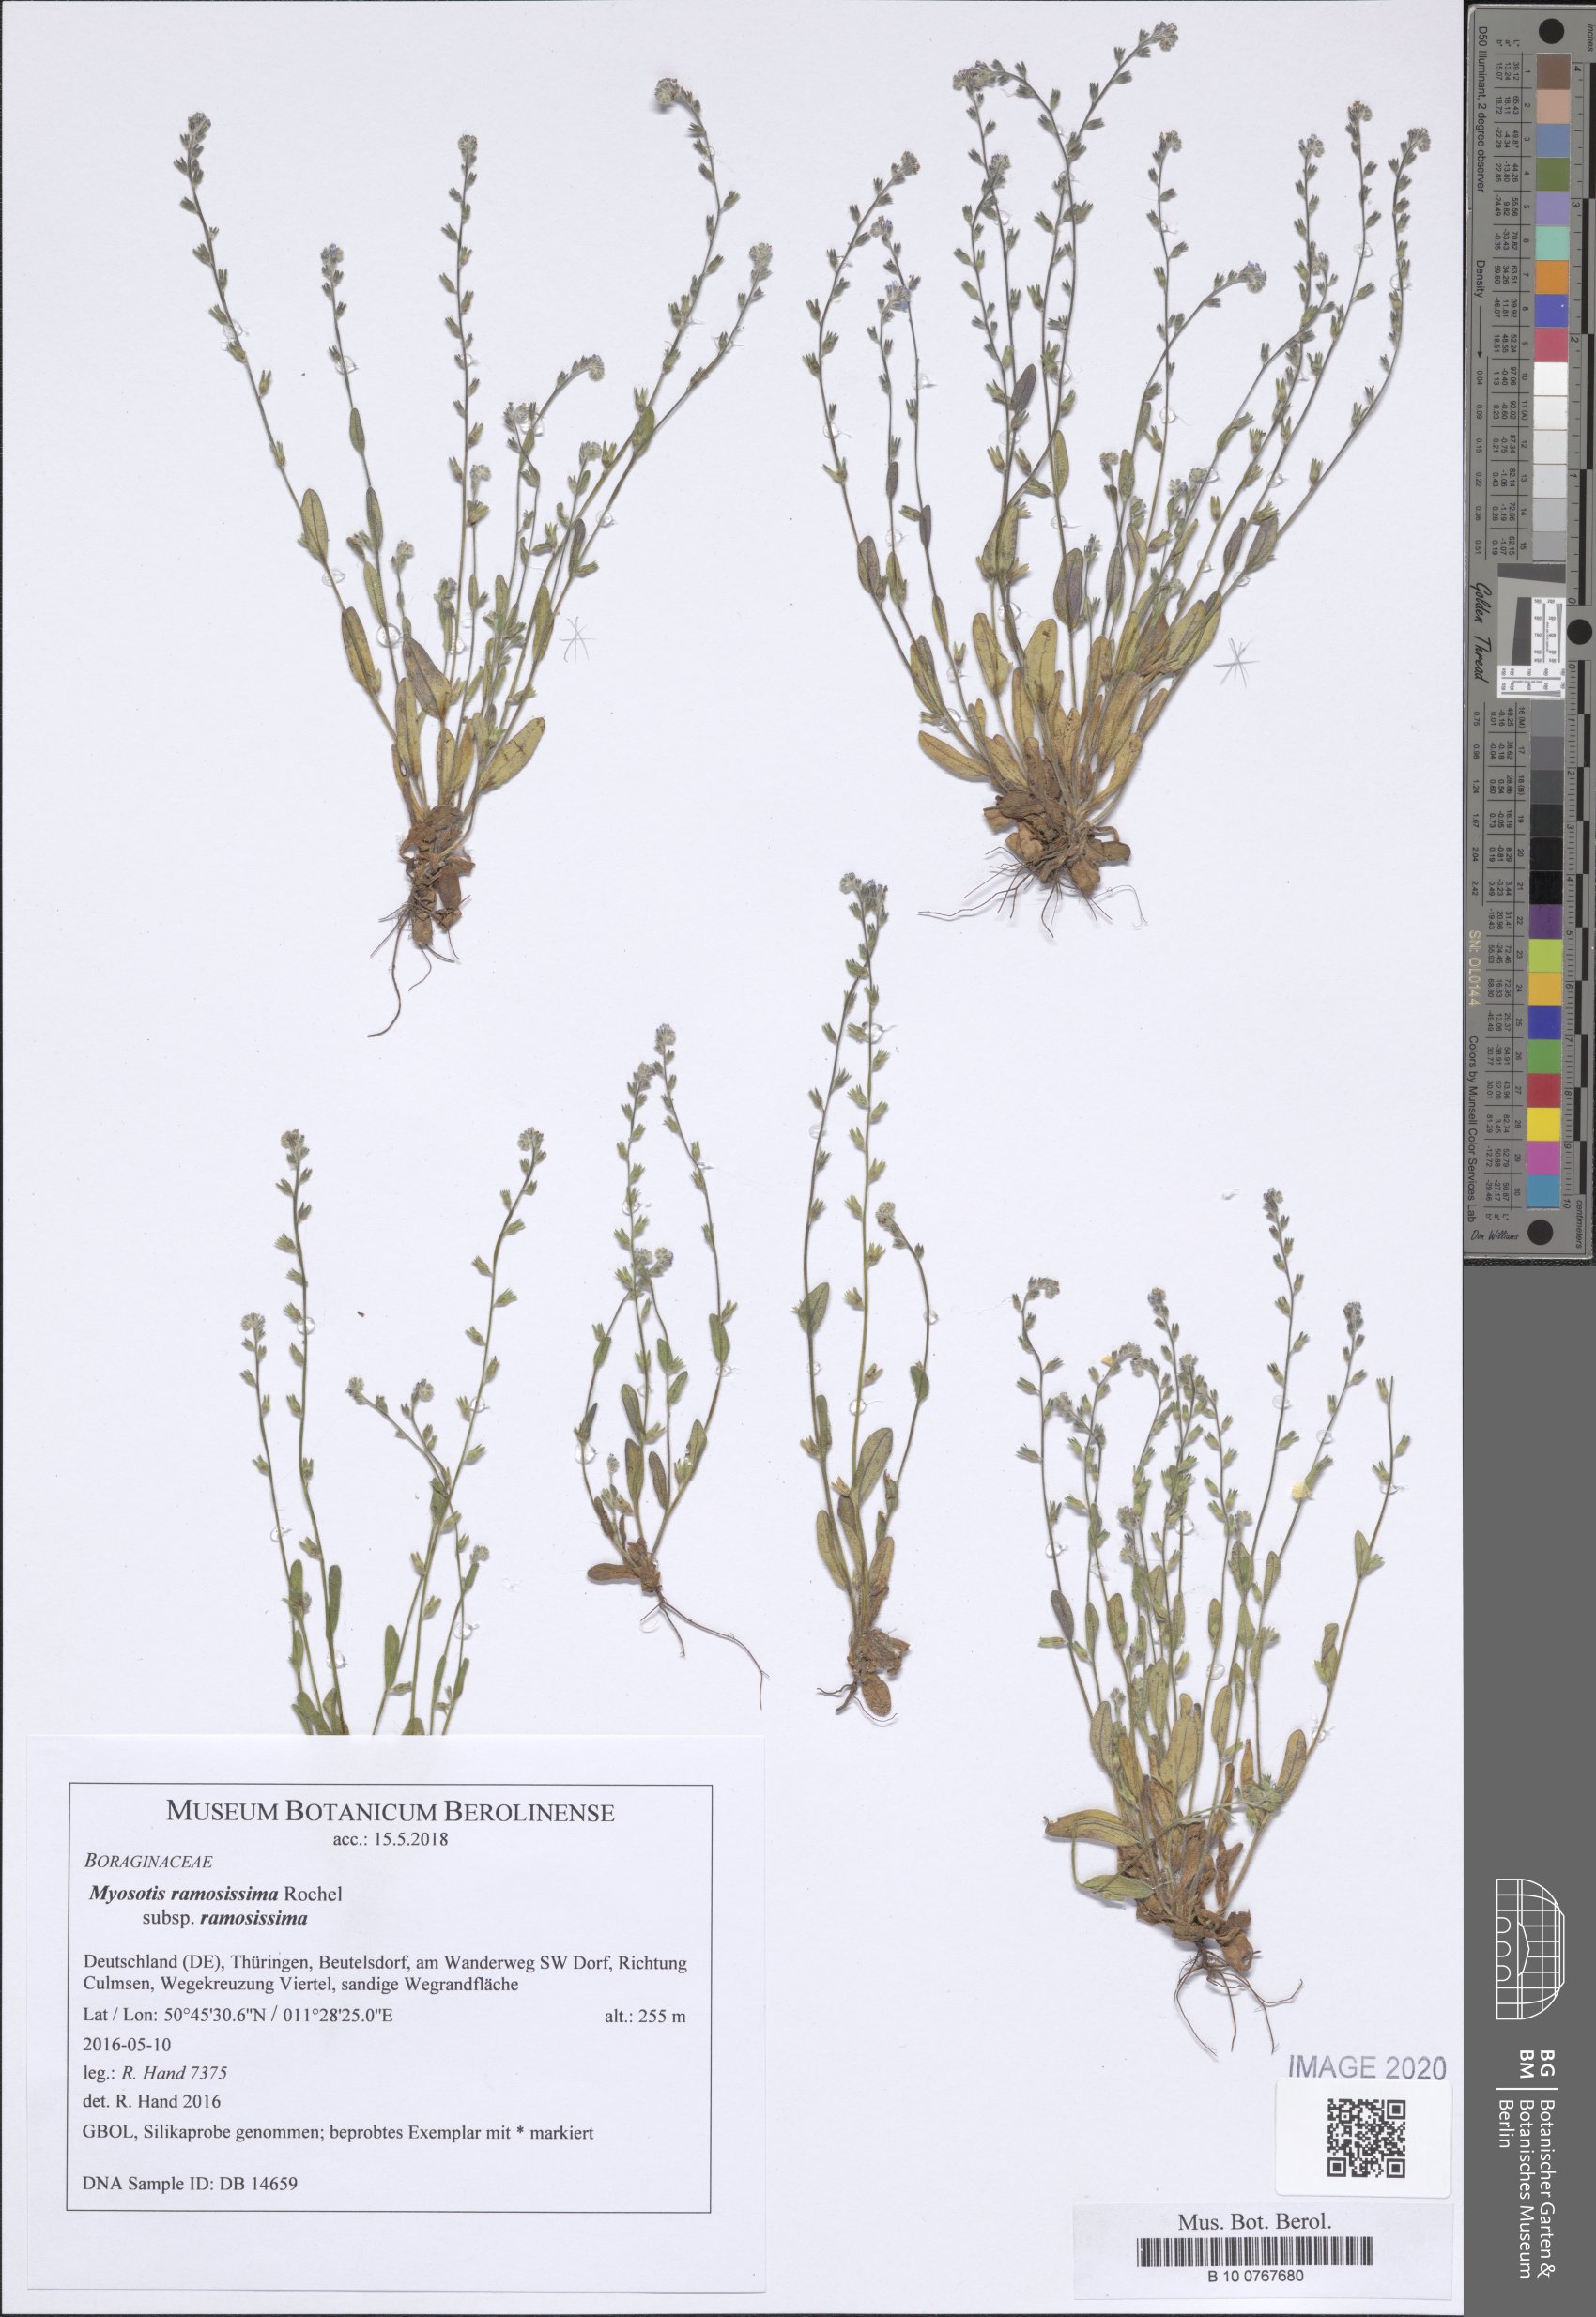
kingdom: Plantae
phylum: Tracheophyta
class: Magnoliopsida
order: Boraginales
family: Boraginaceae
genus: Myosotis
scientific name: Myosotis ramosissima
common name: Early forget-me-not
